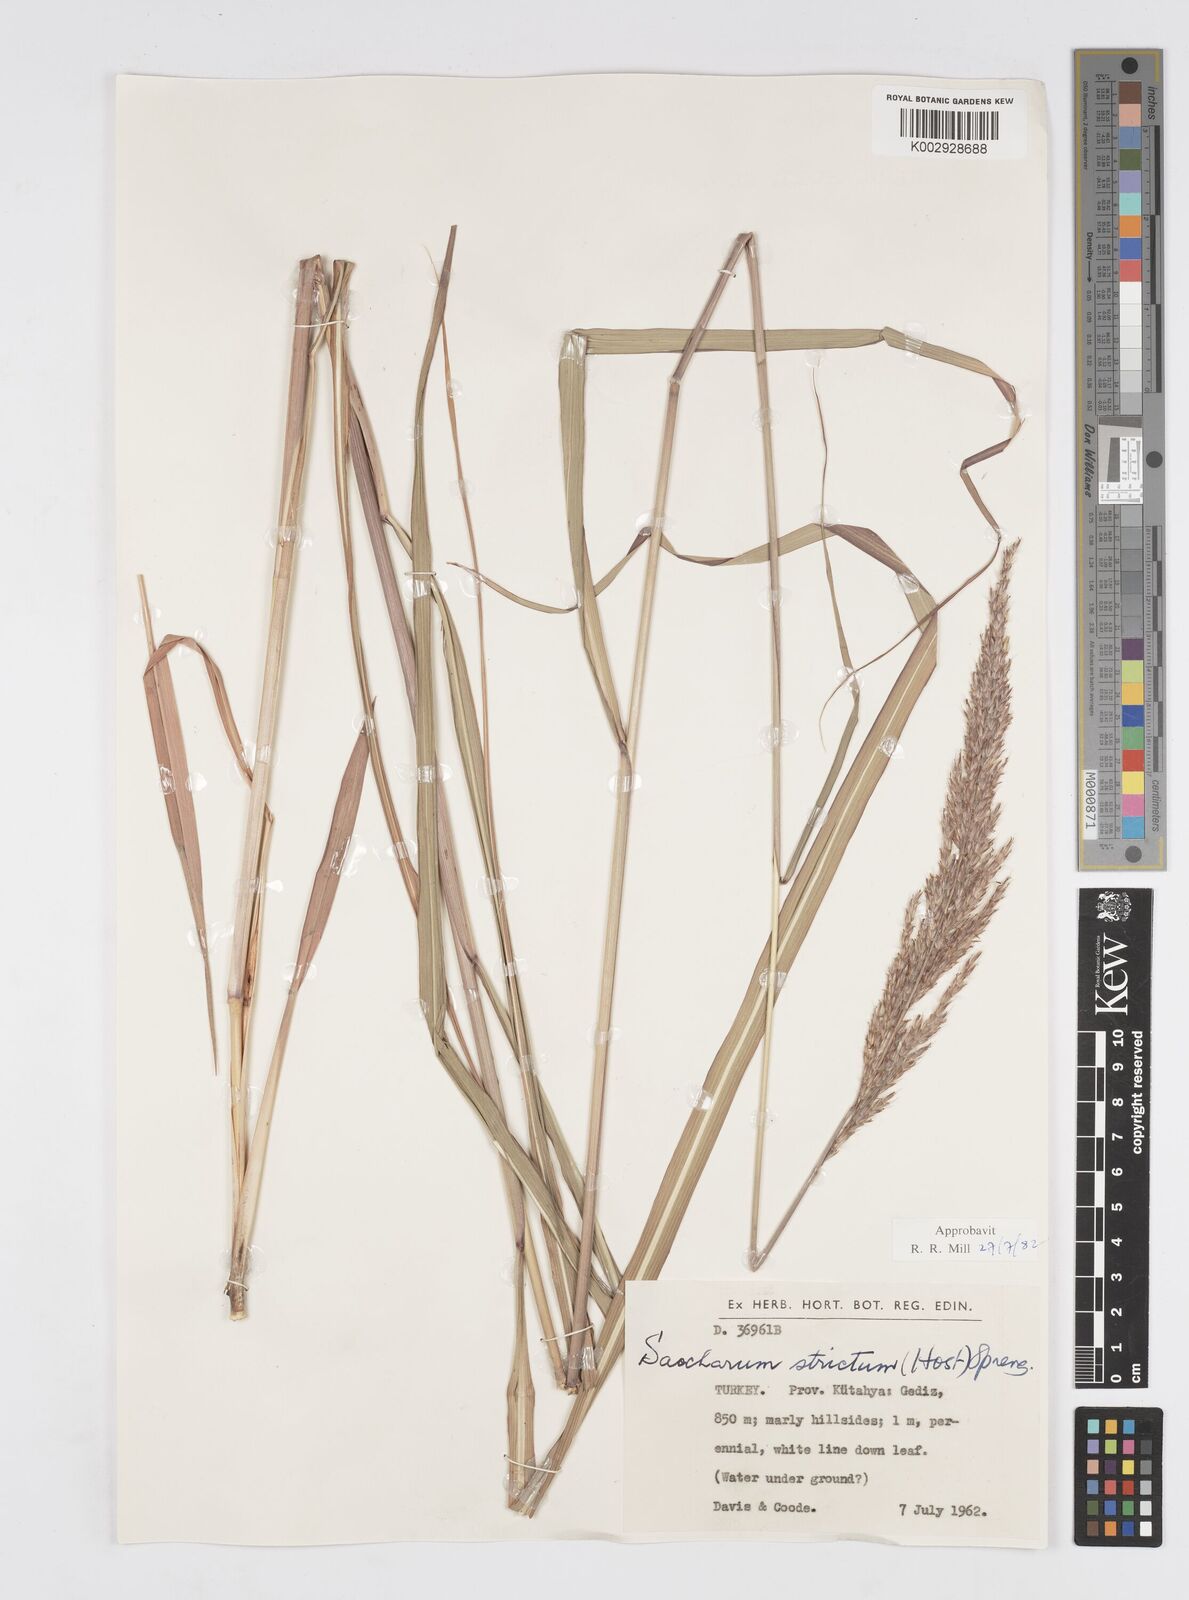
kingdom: Plantae
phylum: Tracheophyta
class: Liliopsida
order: Poales
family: Poaceae
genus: Tripidium
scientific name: Tripidium strictum
